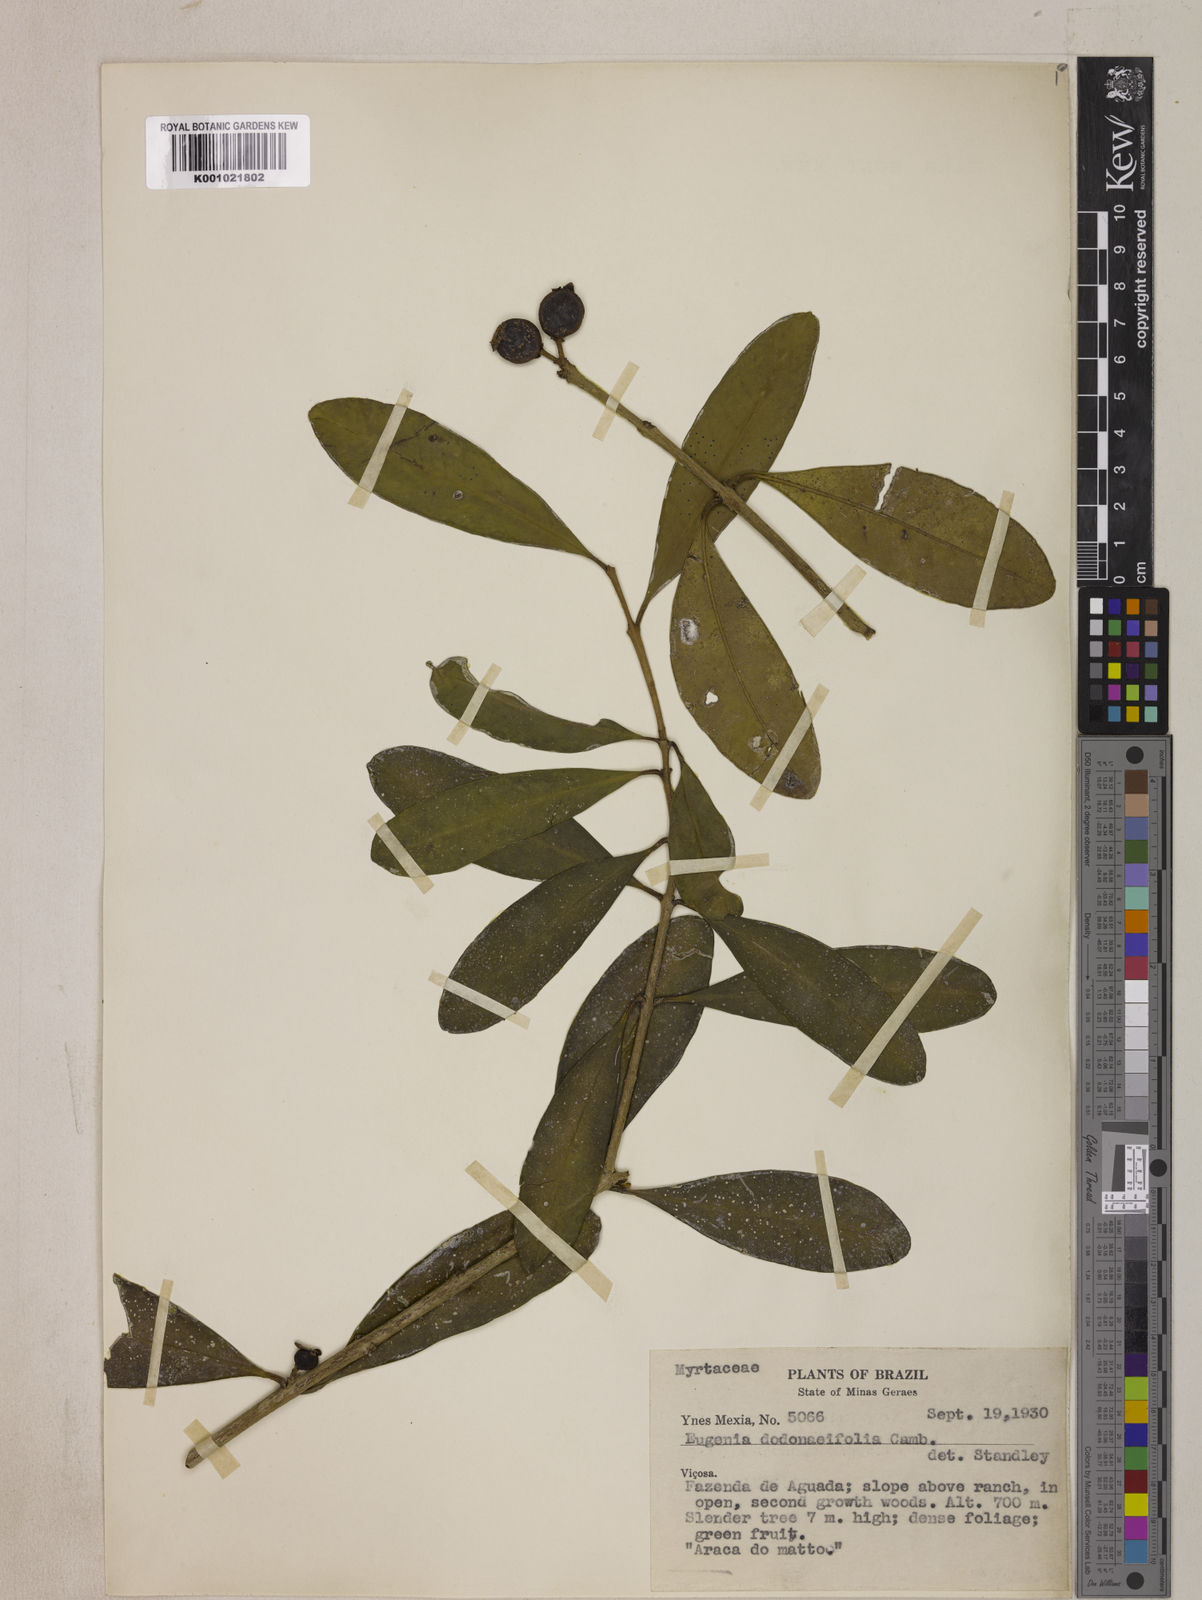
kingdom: Plantae
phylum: Tracheophyta
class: Magnoliopsida
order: Myrtales
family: Myrtaceae
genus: Eugenia
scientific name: Eugenia dodonaeifolia
